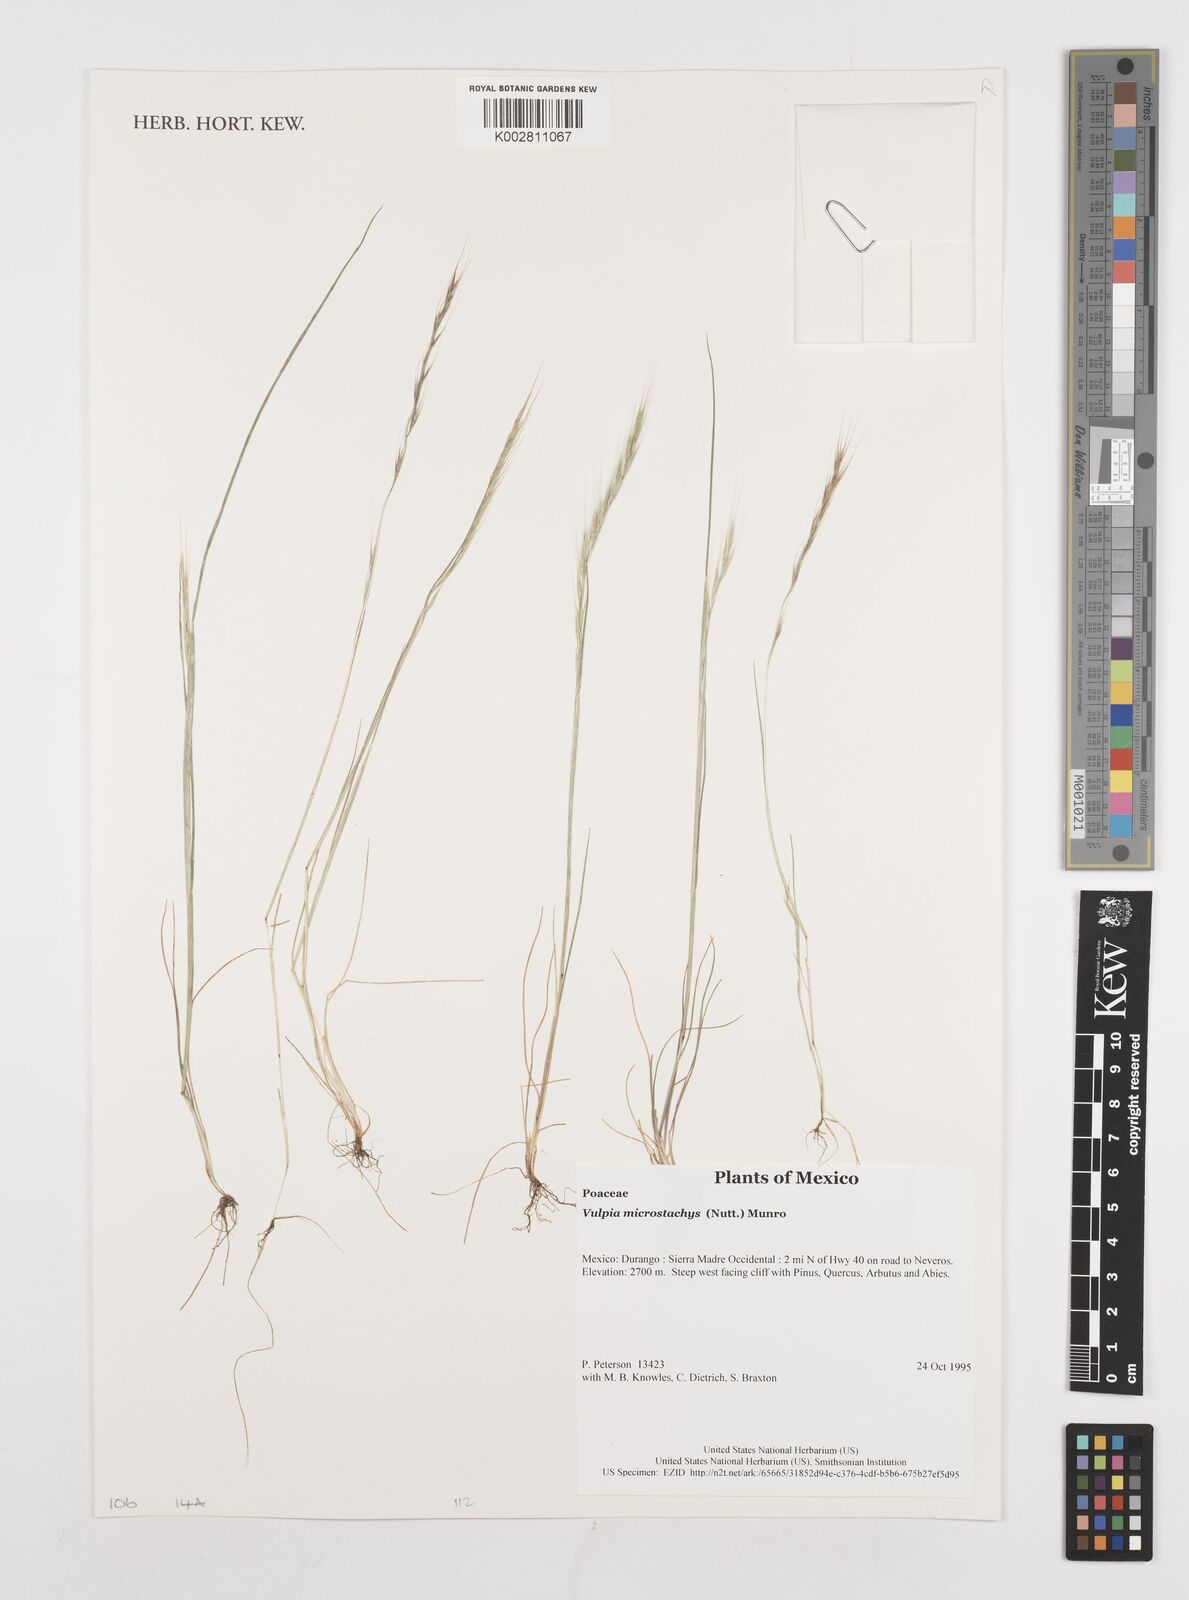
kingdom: Plantae
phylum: Tracheophyta
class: Liliopsida
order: Poales
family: Poaceae
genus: Festuca
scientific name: Festuca microstachys
